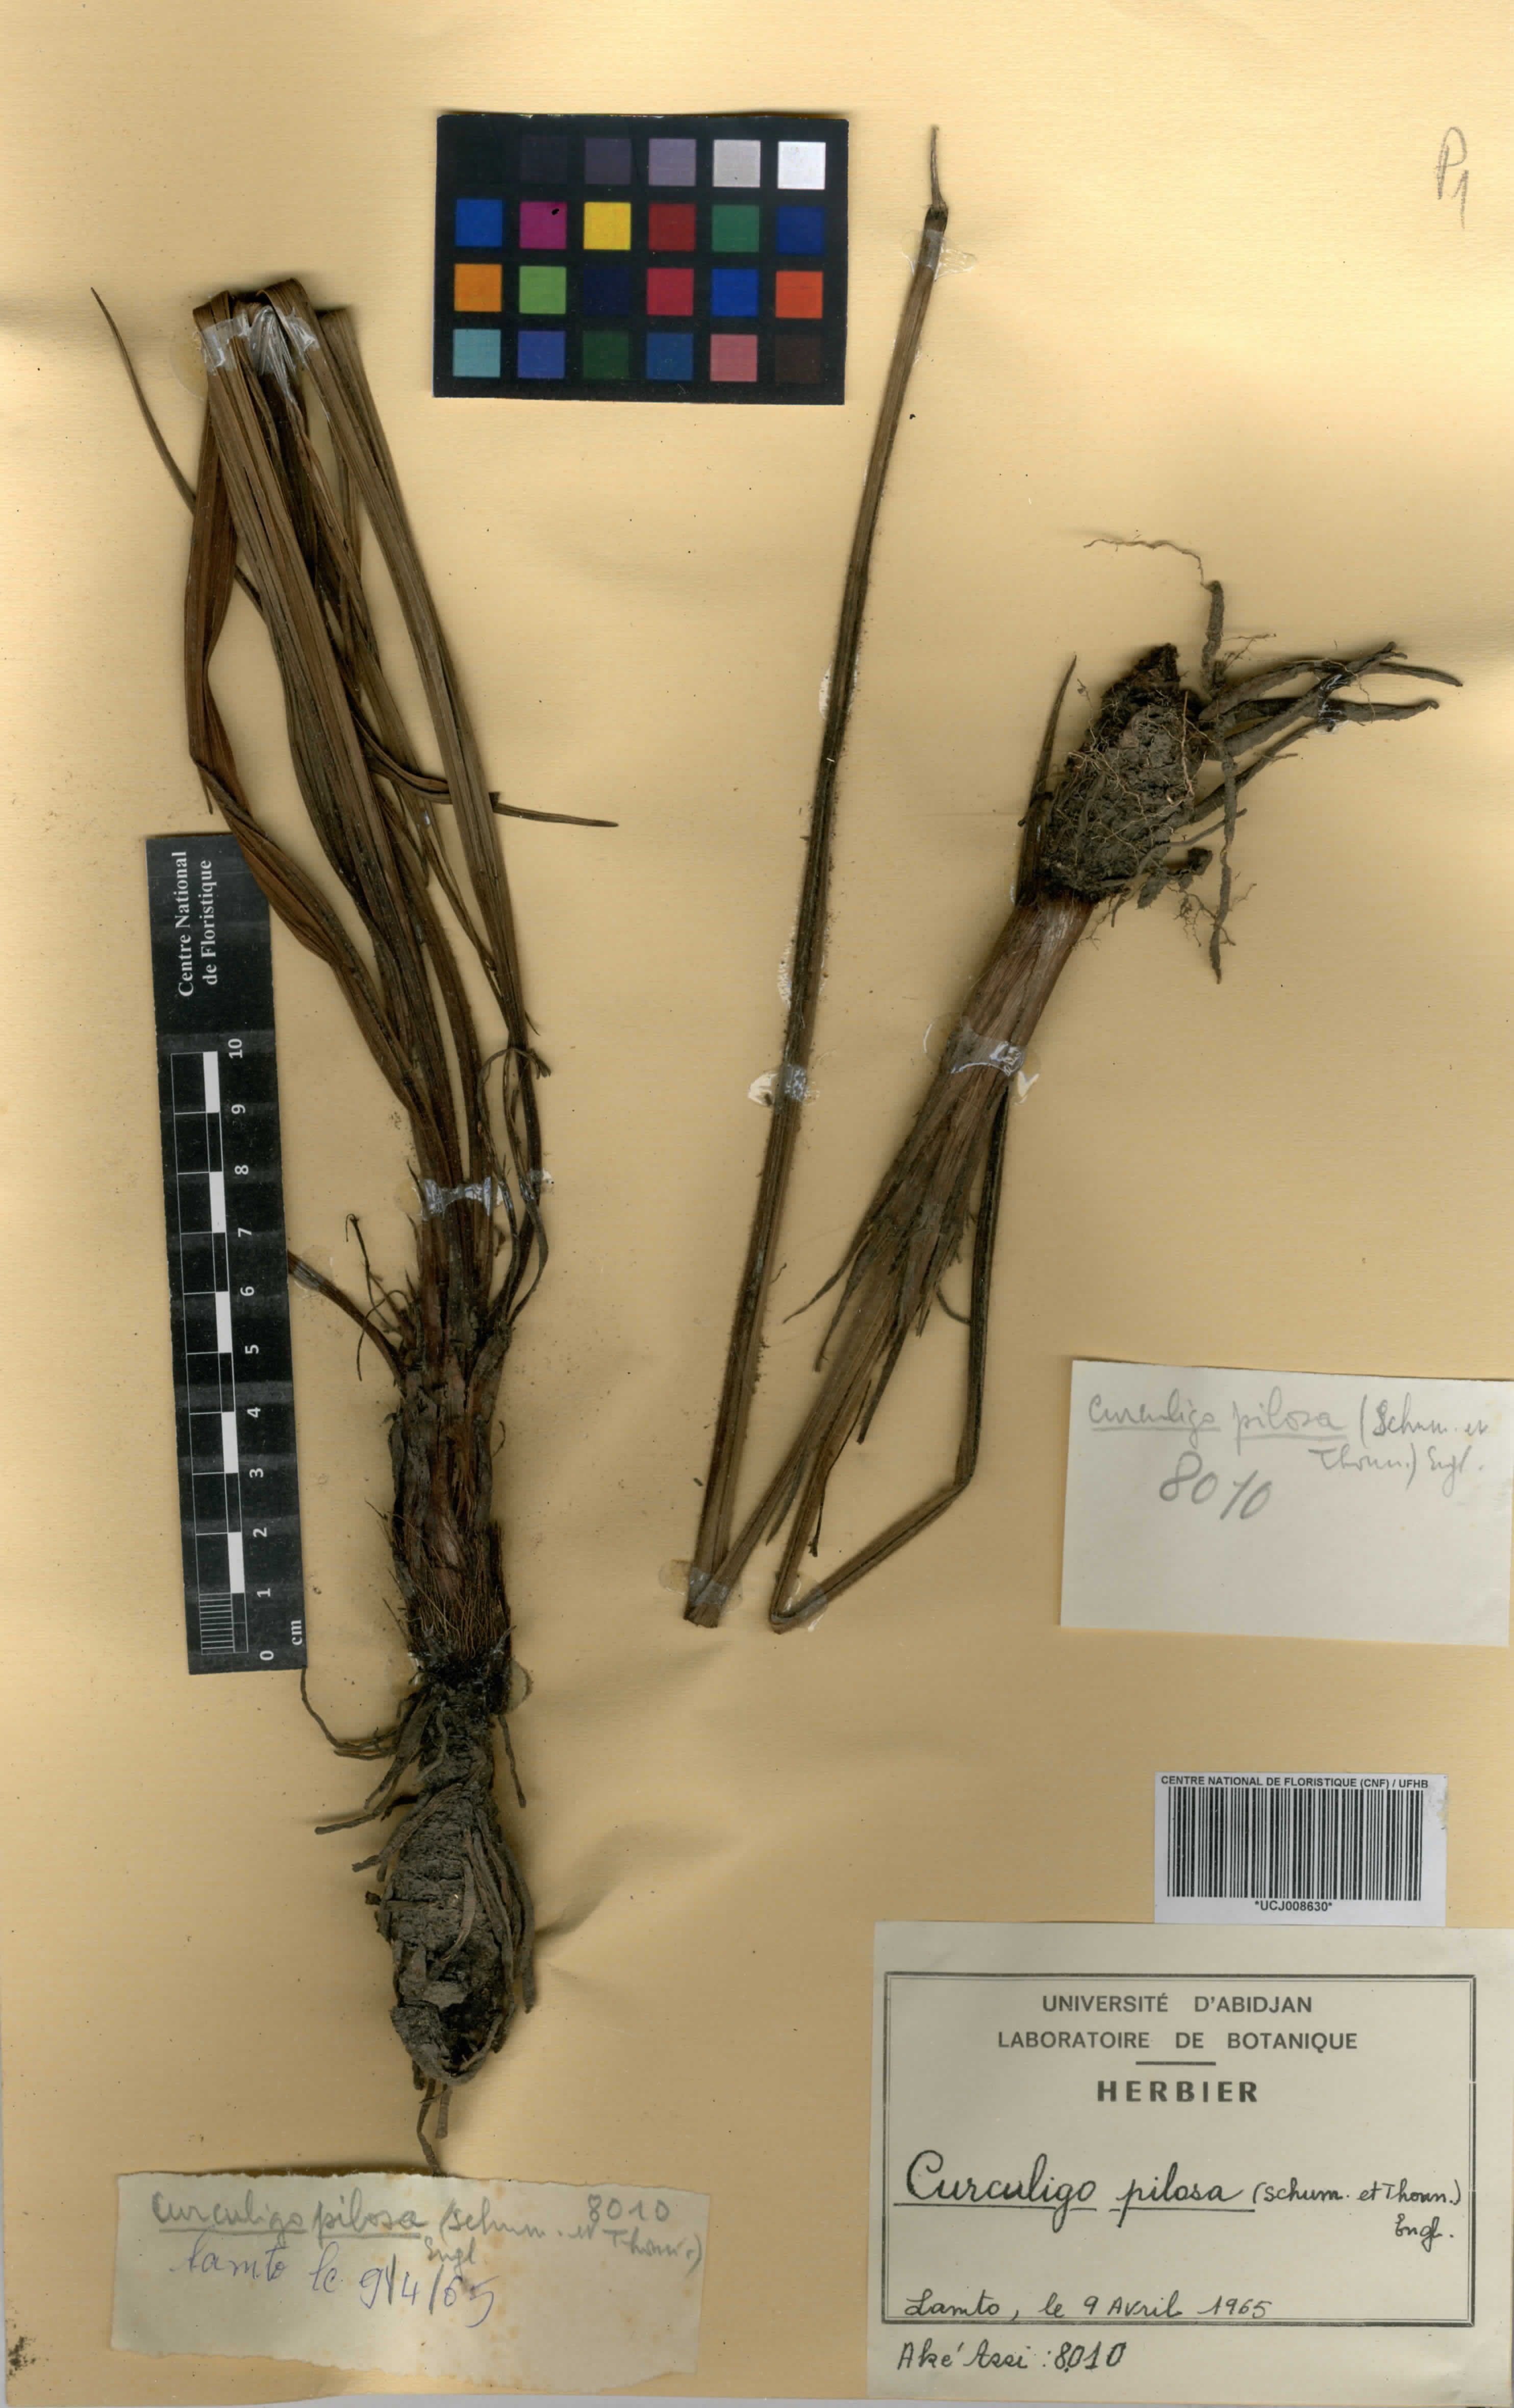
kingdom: Plantae
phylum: Tracheophyta
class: Liliopsida
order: Asparagales
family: Hypoxidaceae
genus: Curculigo
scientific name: Curculigo pilosa
